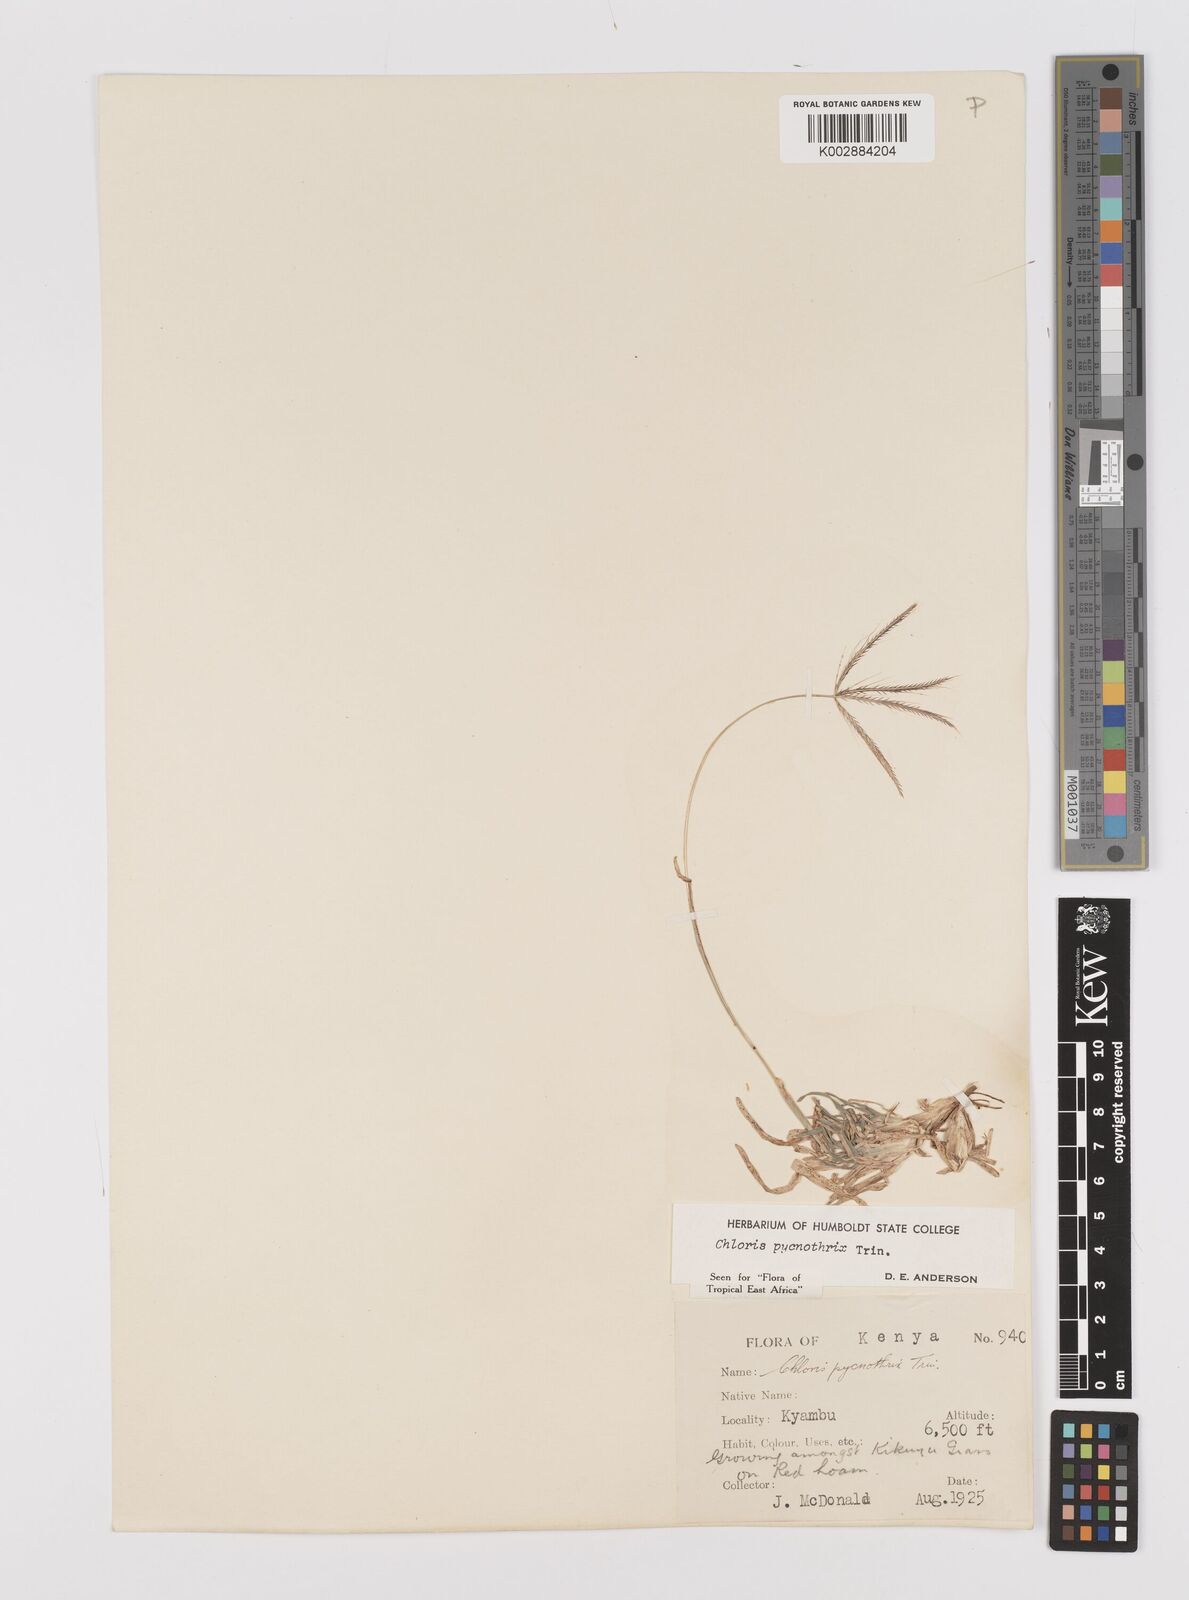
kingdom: Plantae
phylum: Tracheophyta
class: Liliopsida
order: Poales
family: Poaceae
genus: Chloris
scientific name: Chloris pycnothrix
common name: Spiderweb chloris
